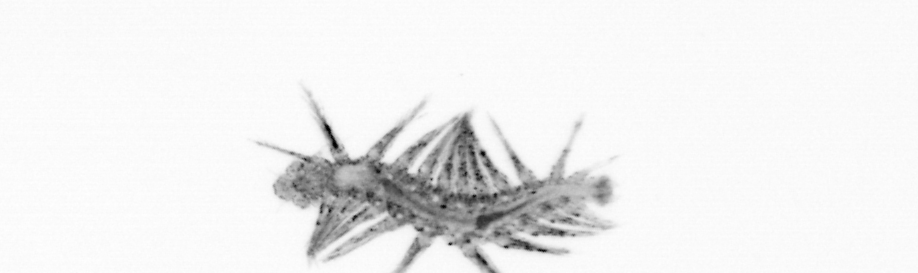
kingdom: Animalia
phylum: Annelida
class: Polychaeta
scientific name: Polychaeta
